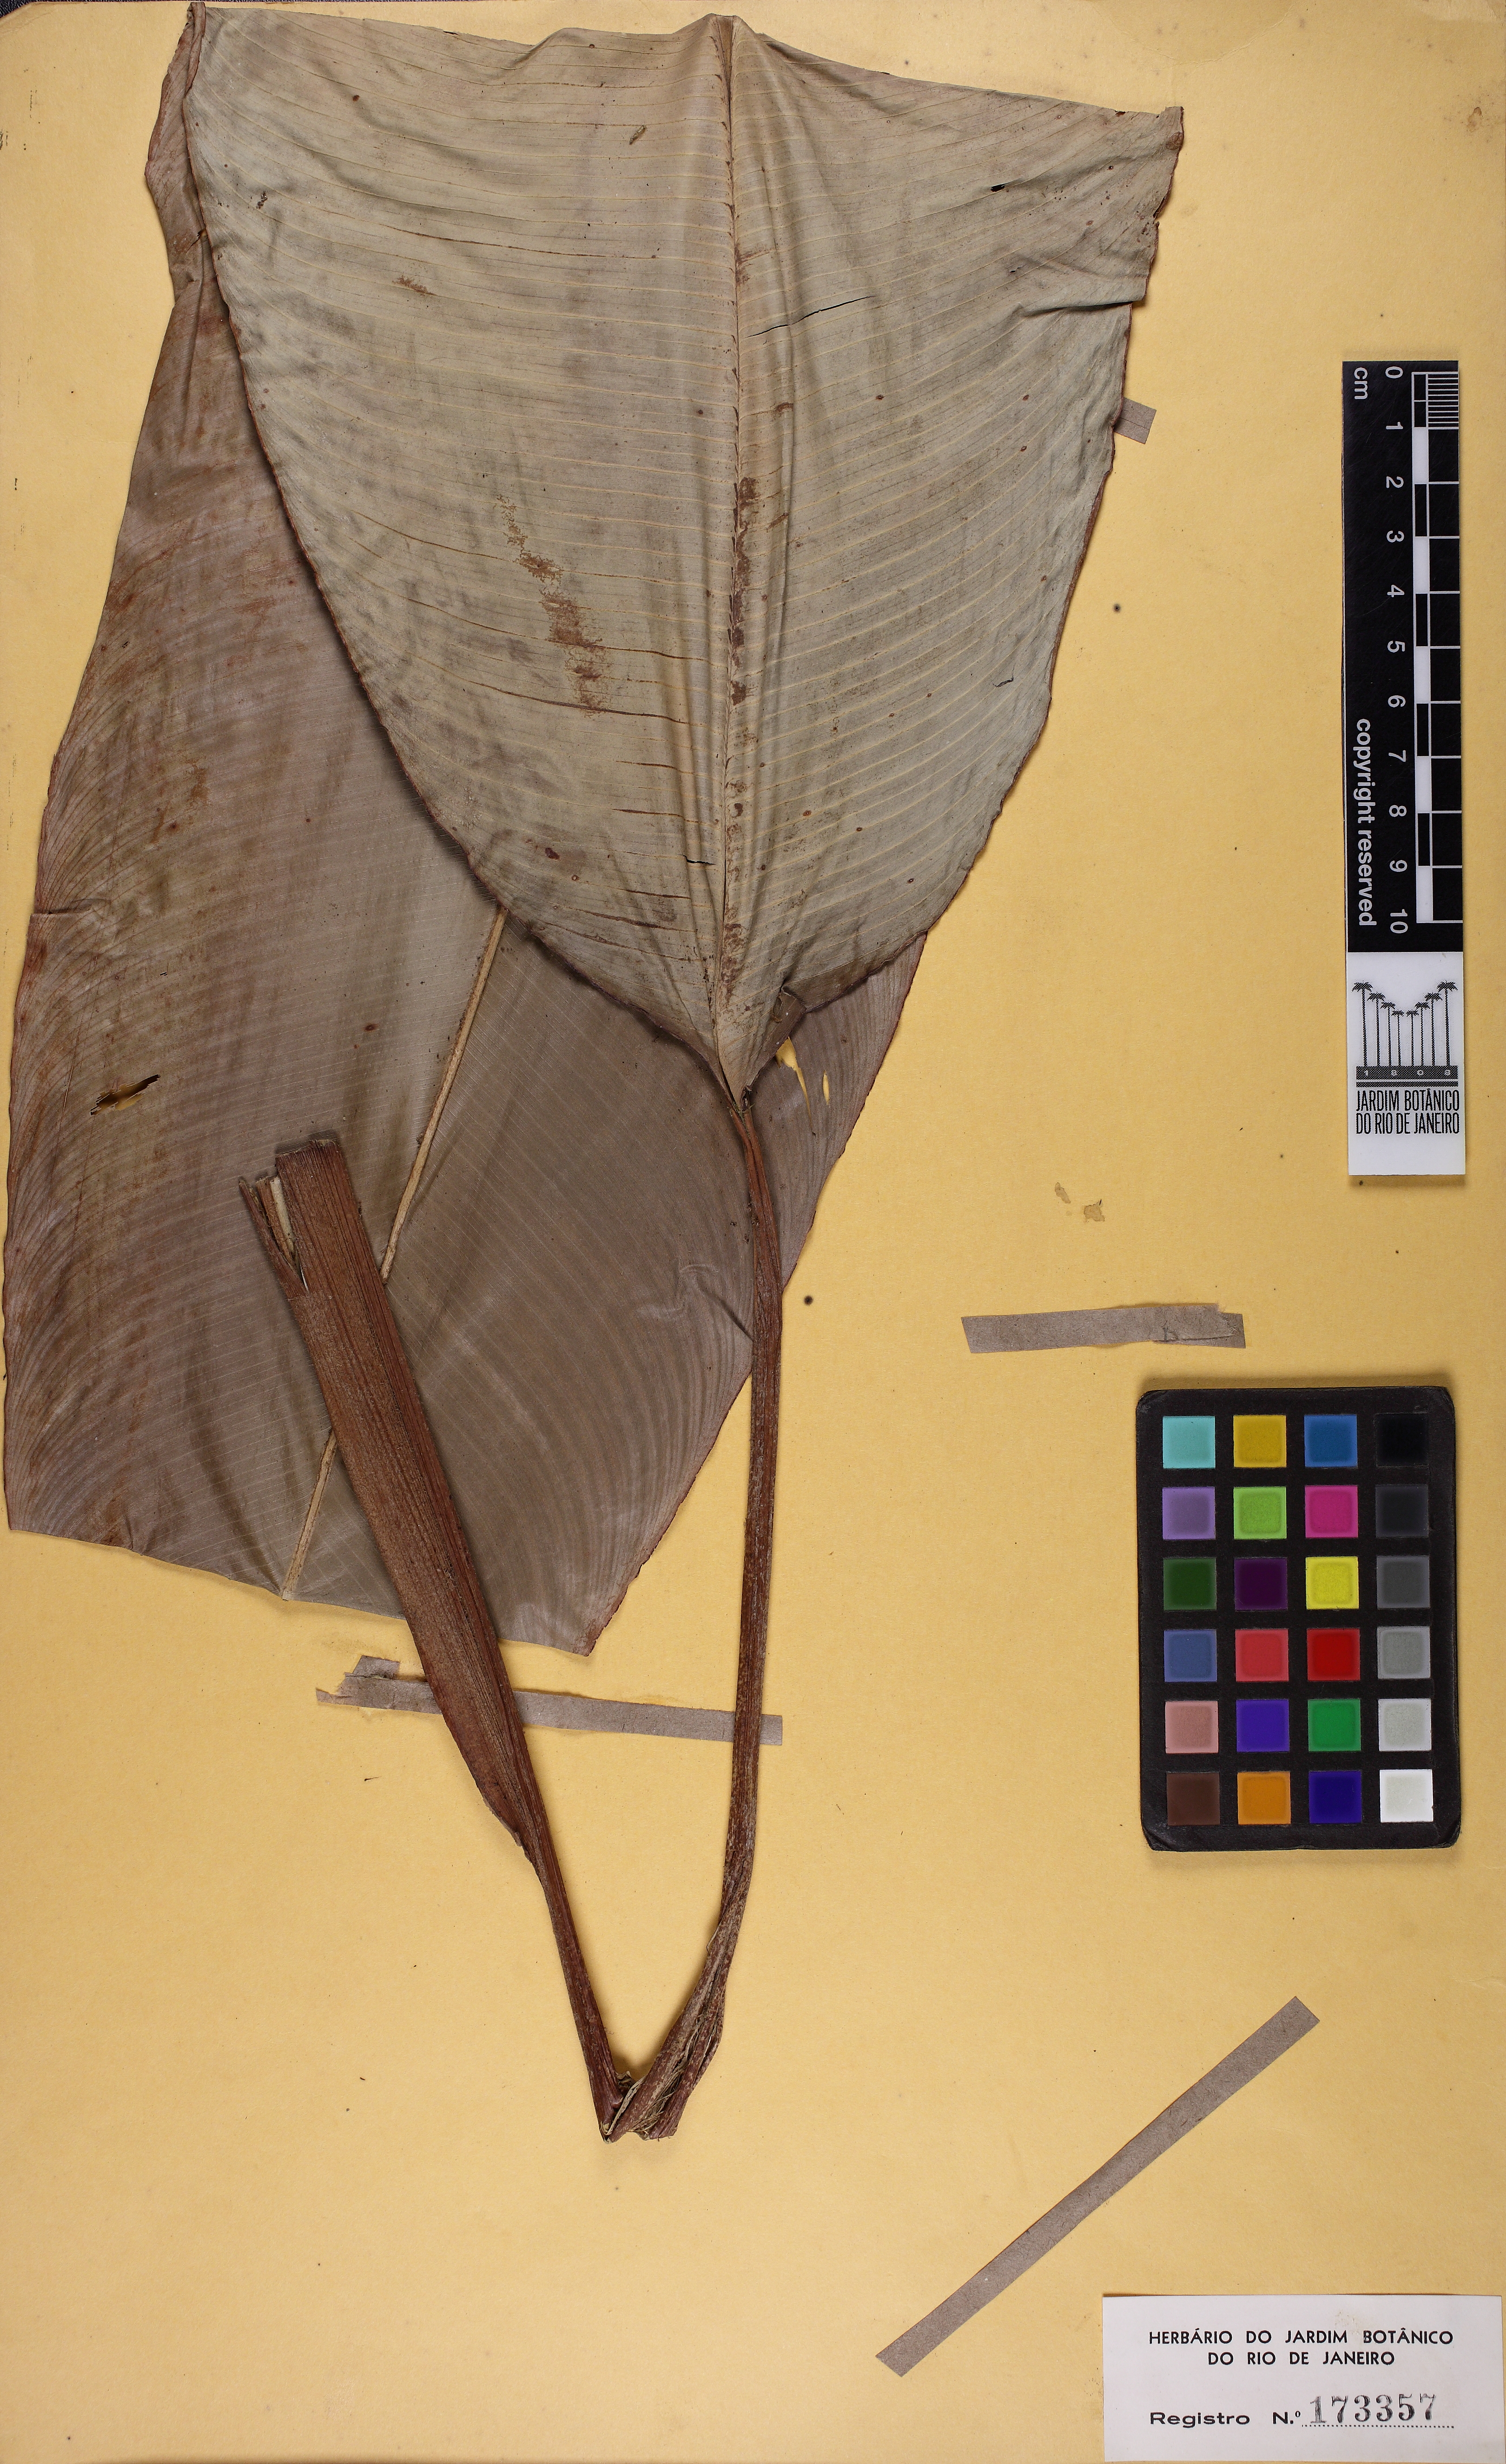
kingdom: Plantae
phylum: Tracheophyta
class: Liliopsida
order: Zingiberales
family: Heliconiaceae
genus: Heliconia
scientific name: Heliconia irrasa
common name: Wild plantain
